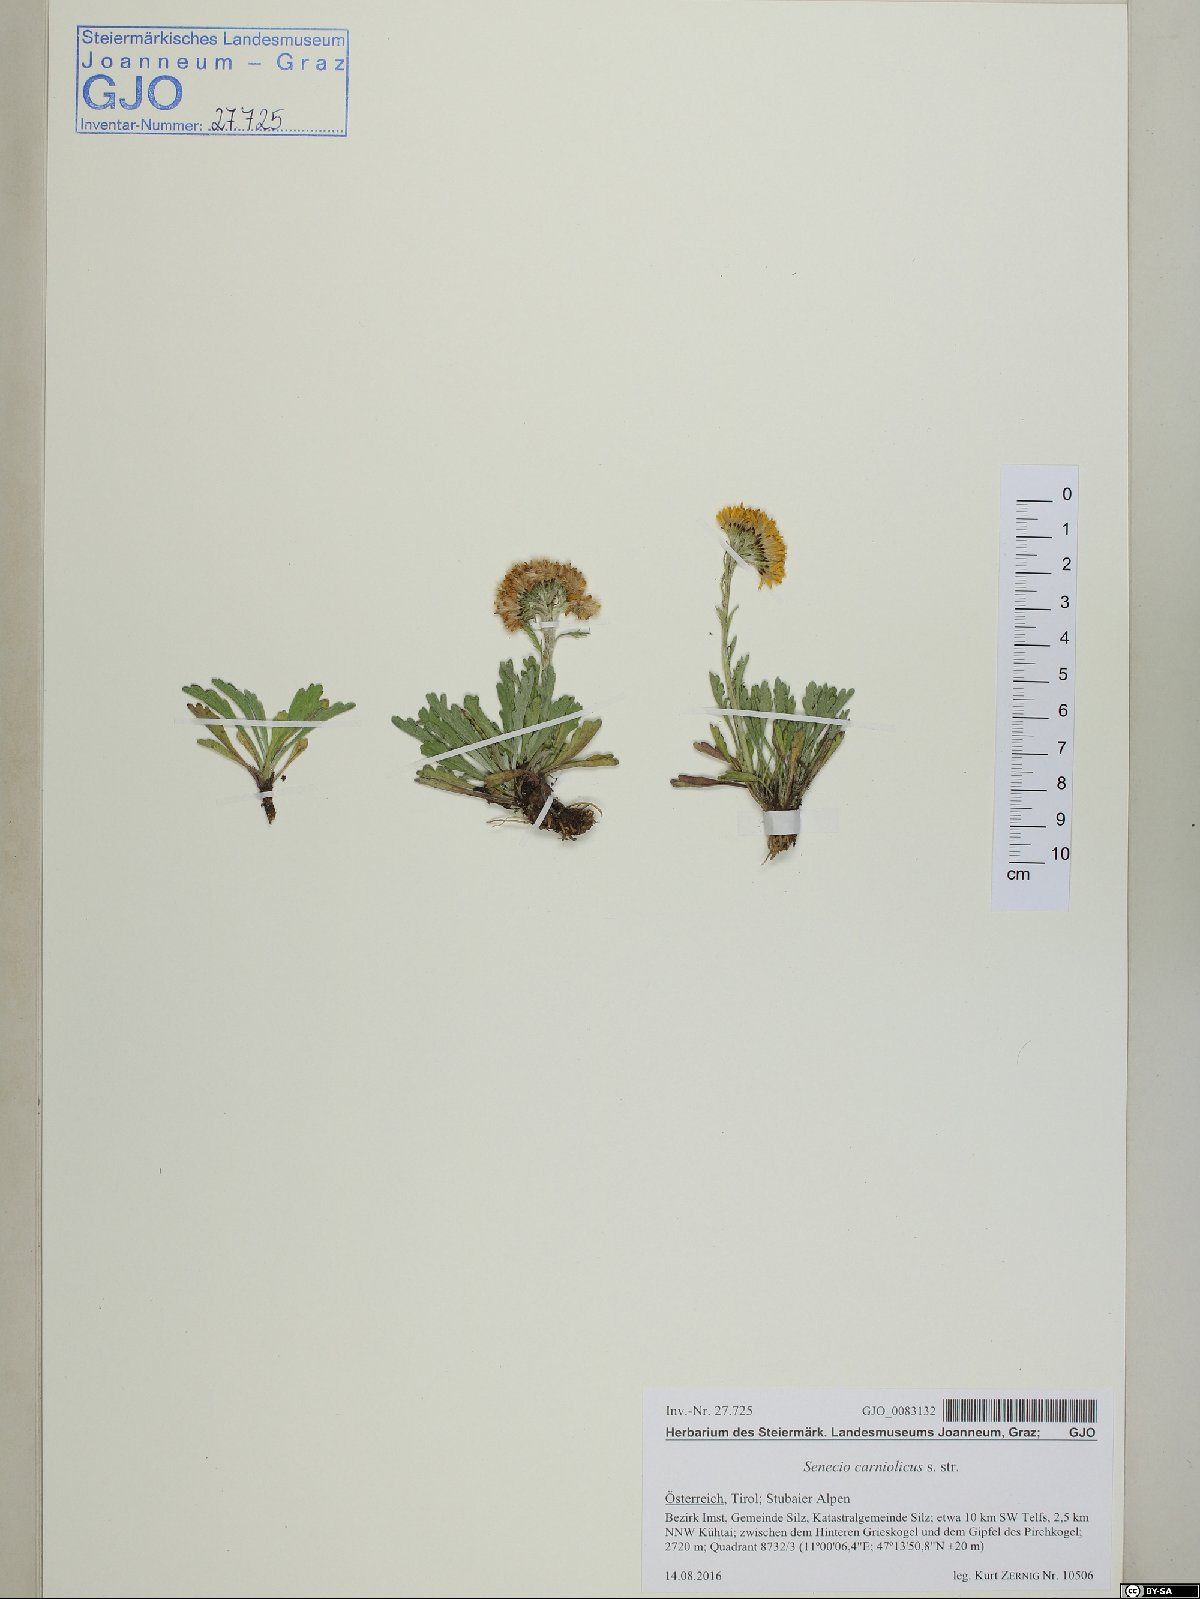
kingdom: Plantae
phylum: Tracheophyta
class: Magnoliopsida
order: Asterales
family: Asteraceae
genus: Jacobaea
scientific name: Jacobaea carniolica
